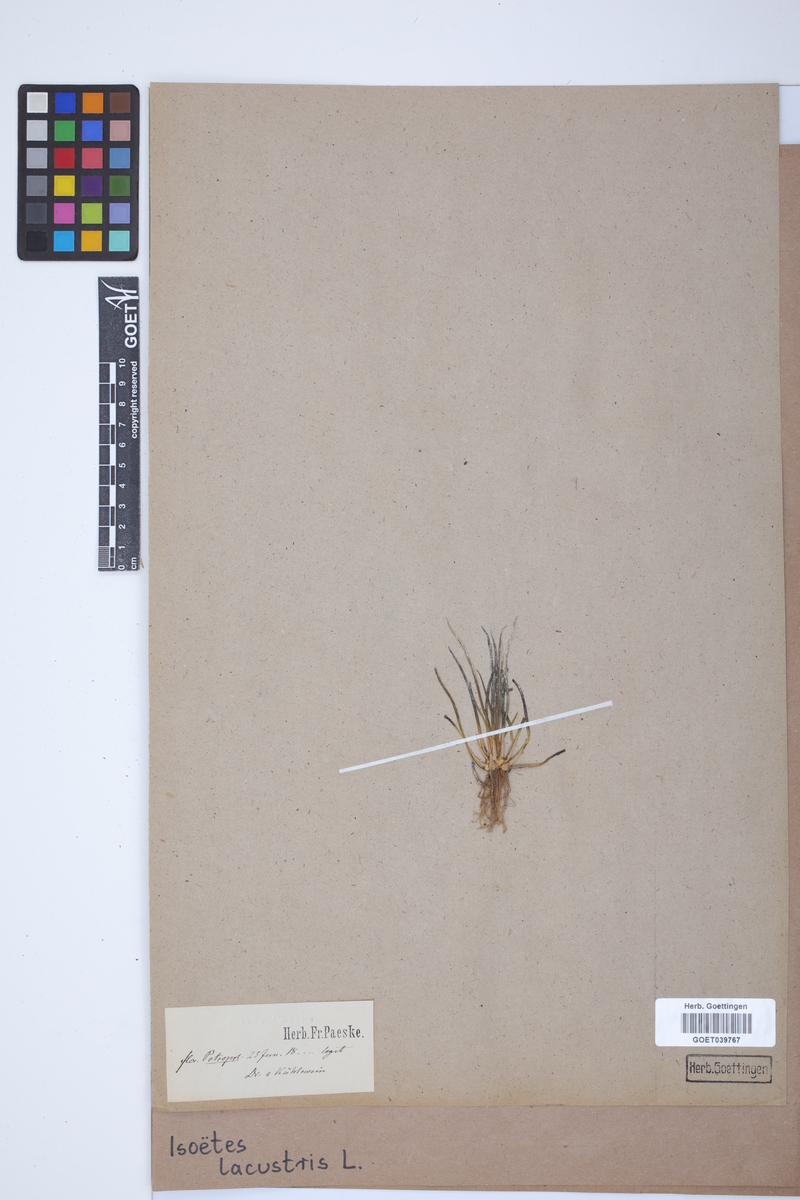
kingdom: Plantae
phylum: Tracheophyta
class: Lycopodiopsida
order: Isoetales
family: Isoetaceae
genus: Isoetes
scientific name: Isoetes lacustris
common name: Common quillwort
